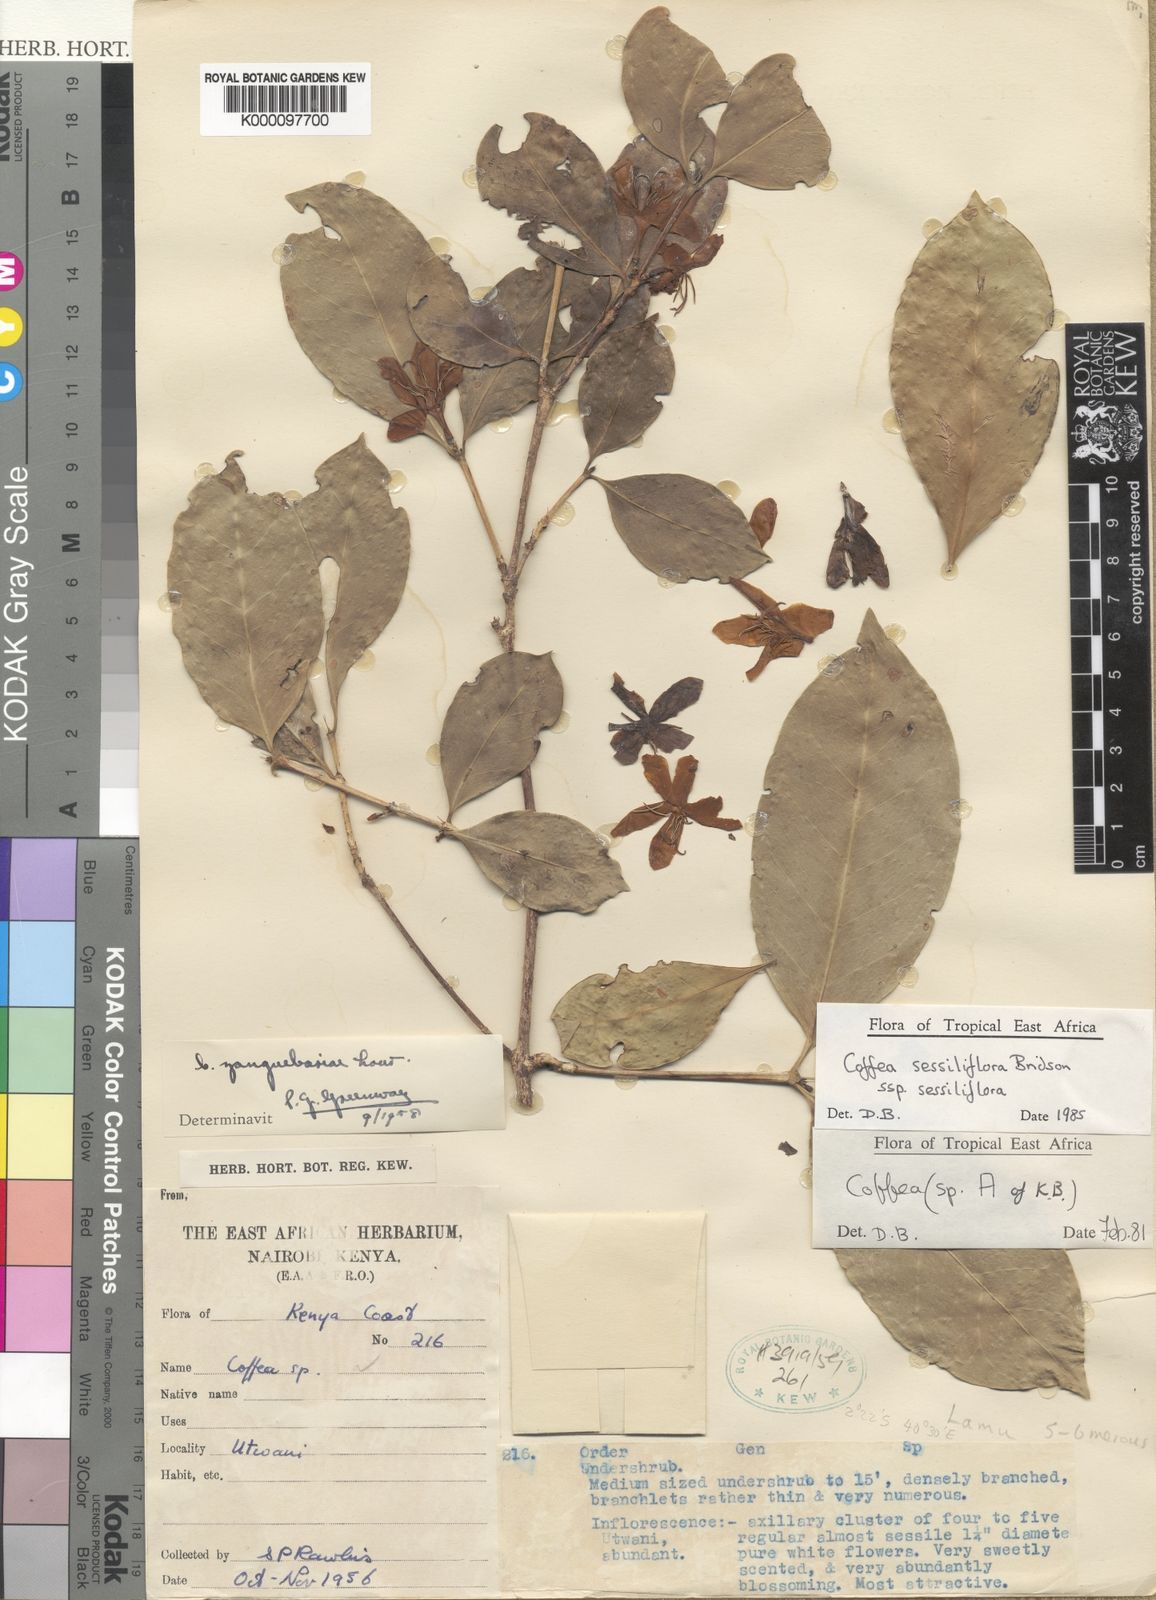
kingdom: Plantae
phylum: Tracheophyta
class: Magnoliopsida
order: Gentianales
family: Rubiaceae
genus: Coffea
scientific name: Coffea sessiliflora
